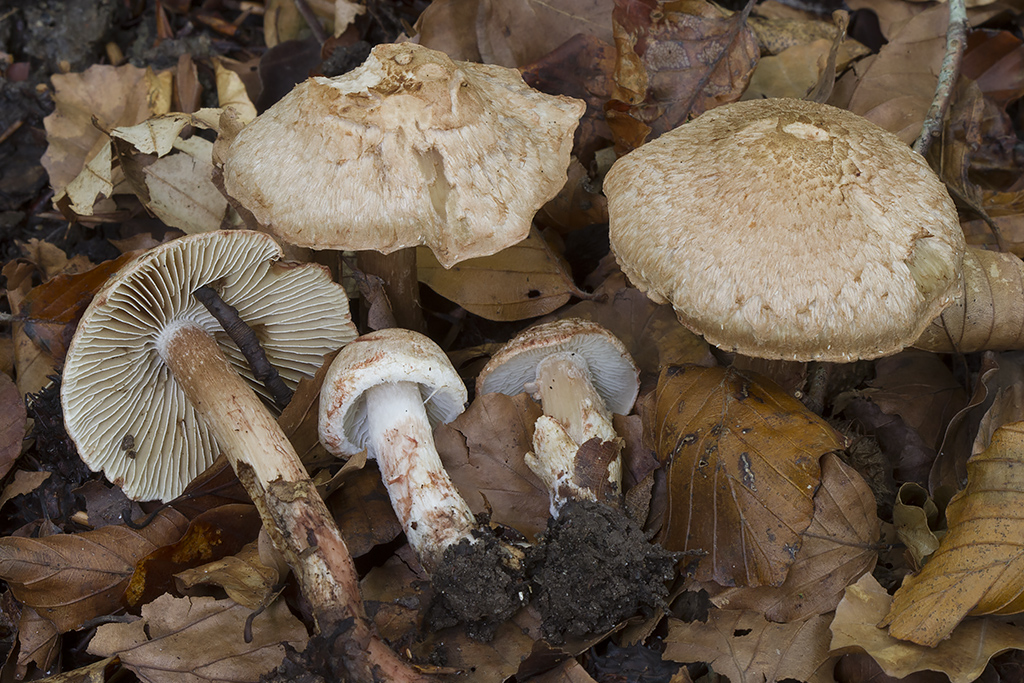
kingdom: Fungi
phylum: Basidiomycota
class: Agaricomycetes
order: Agaricales
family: Inocybaceae
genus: Inosperma
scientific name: Inosperma bongardii
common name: Bongards trævlhat
